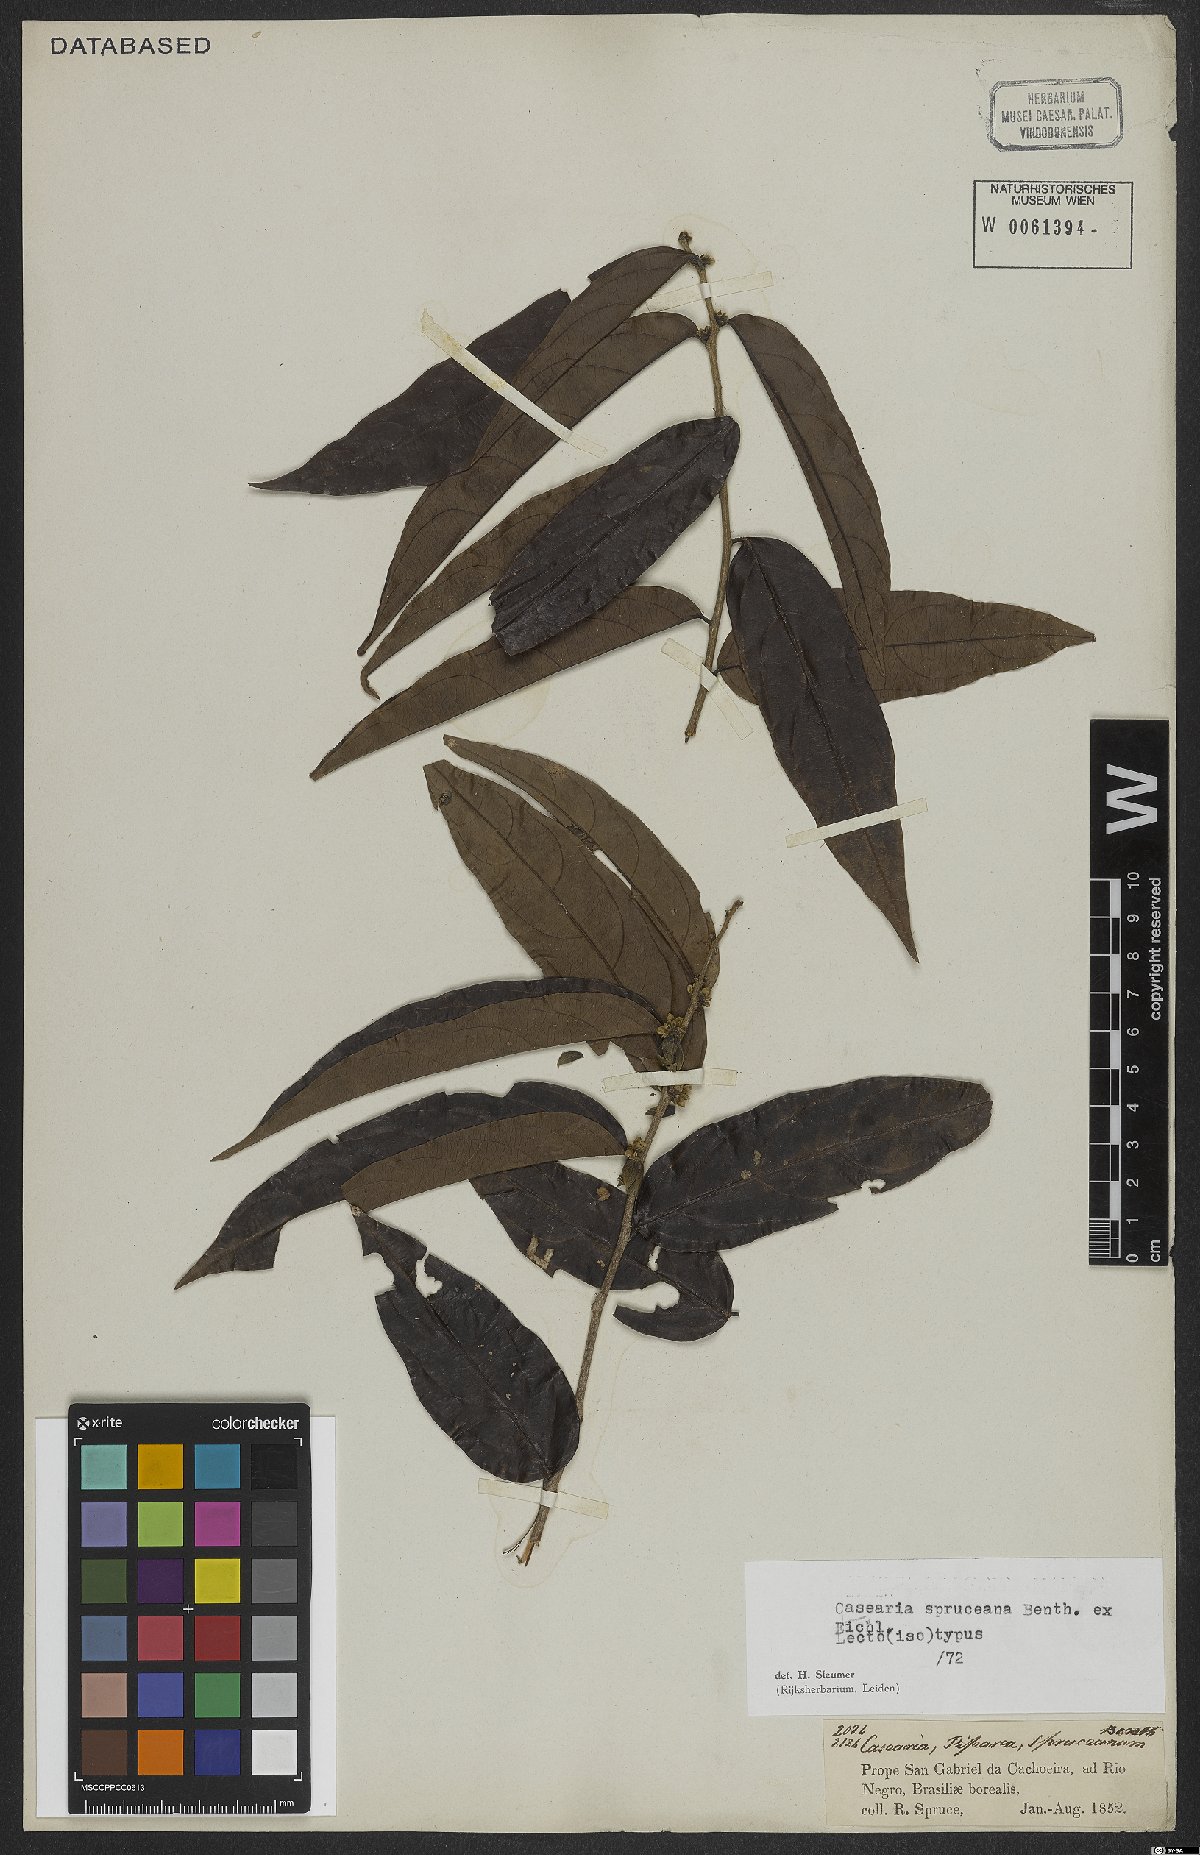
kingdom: Plantae
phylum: Tracheophyta
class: Magnoliopsida
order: Malpighiales
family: Salicaceae
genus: Piparea
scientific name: Piparea spruceana
